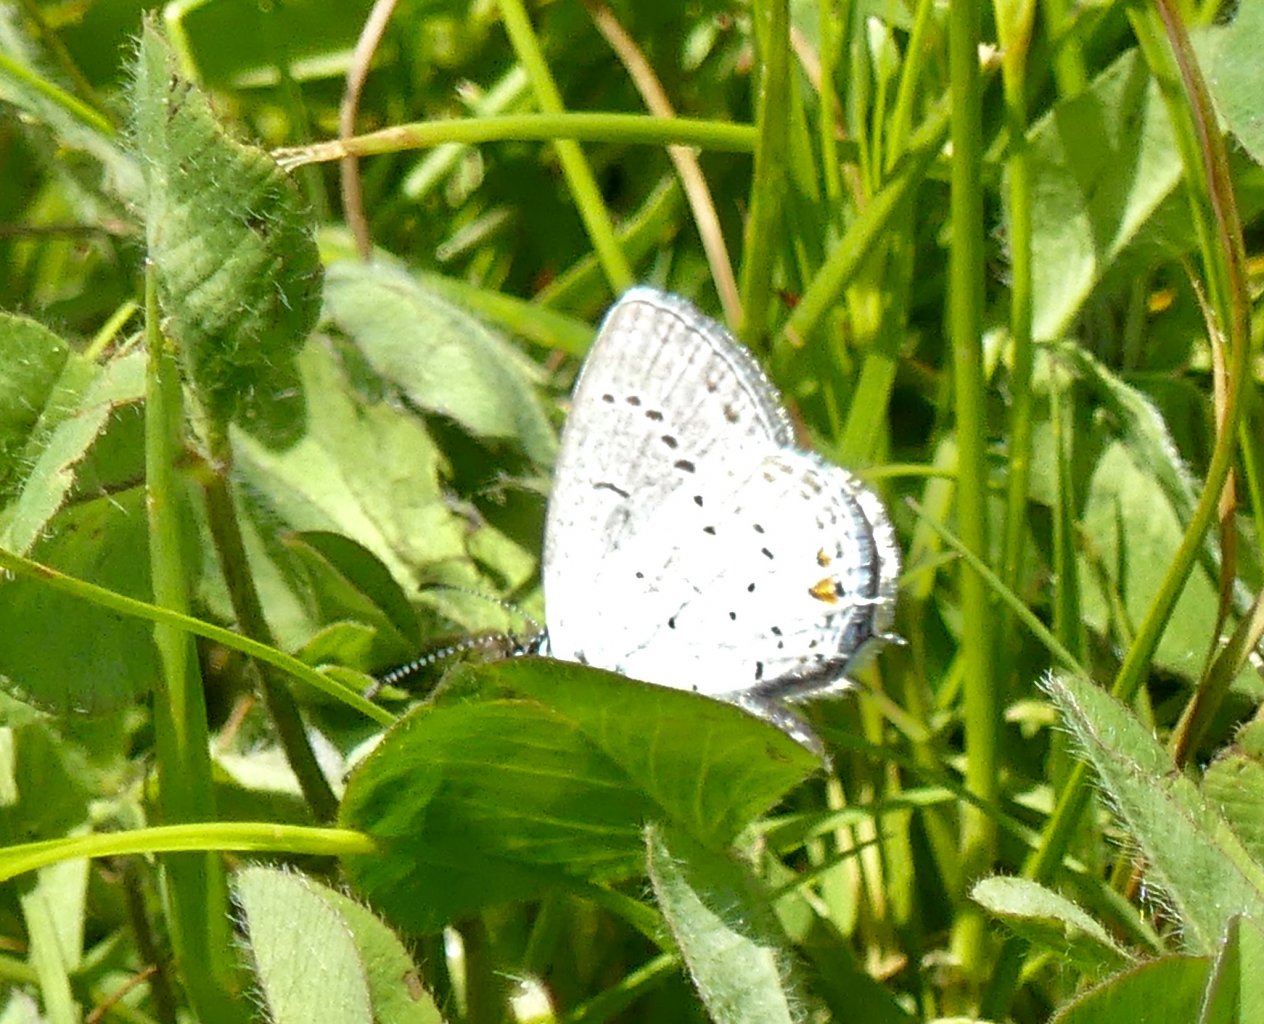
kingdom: Animalia
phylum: Arthropoda
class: Insecta
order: Lepidoptera
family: Lycaenidae
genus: Elkalyce
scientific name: Elkalyce comyntas
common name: Eastern Tailed-Blue
